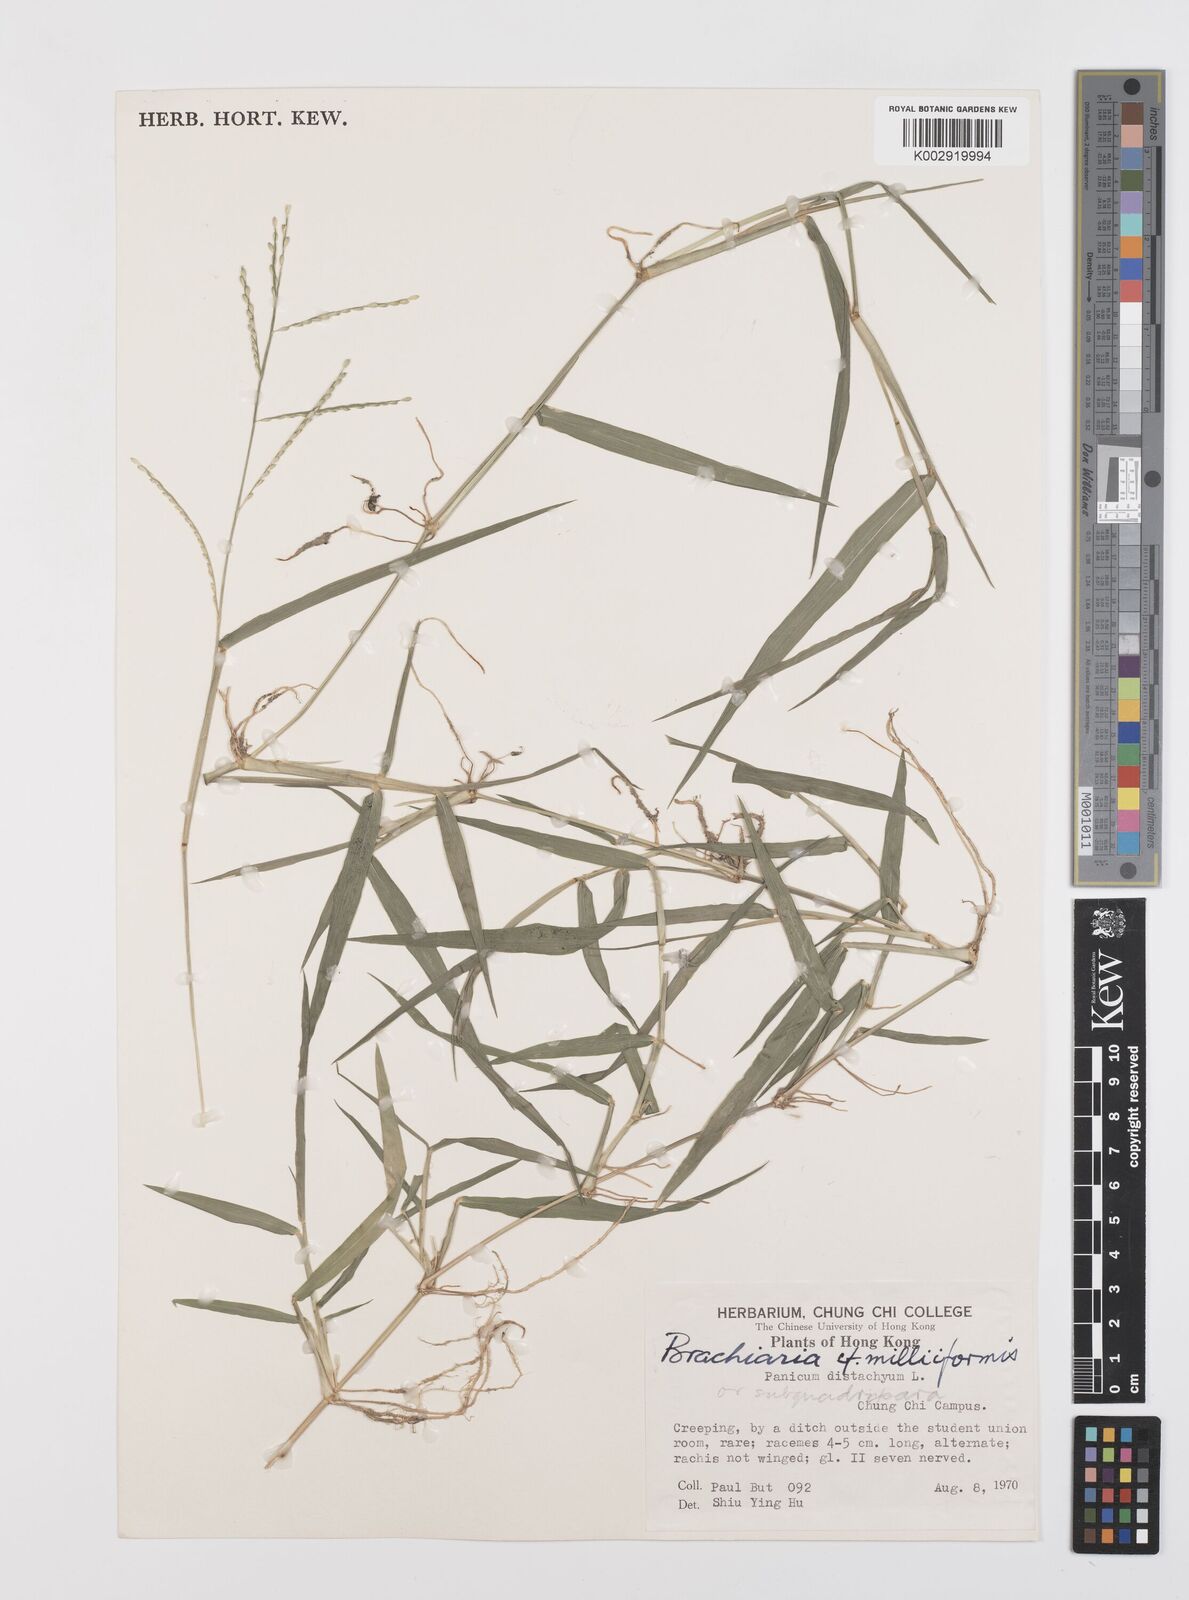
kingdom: Plantae
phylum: Tracheophyta
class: Liliopsida
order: Poales
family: Poaceae
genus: Urochloa
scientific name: Urochloa subquadripara
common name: Armgrass millet
